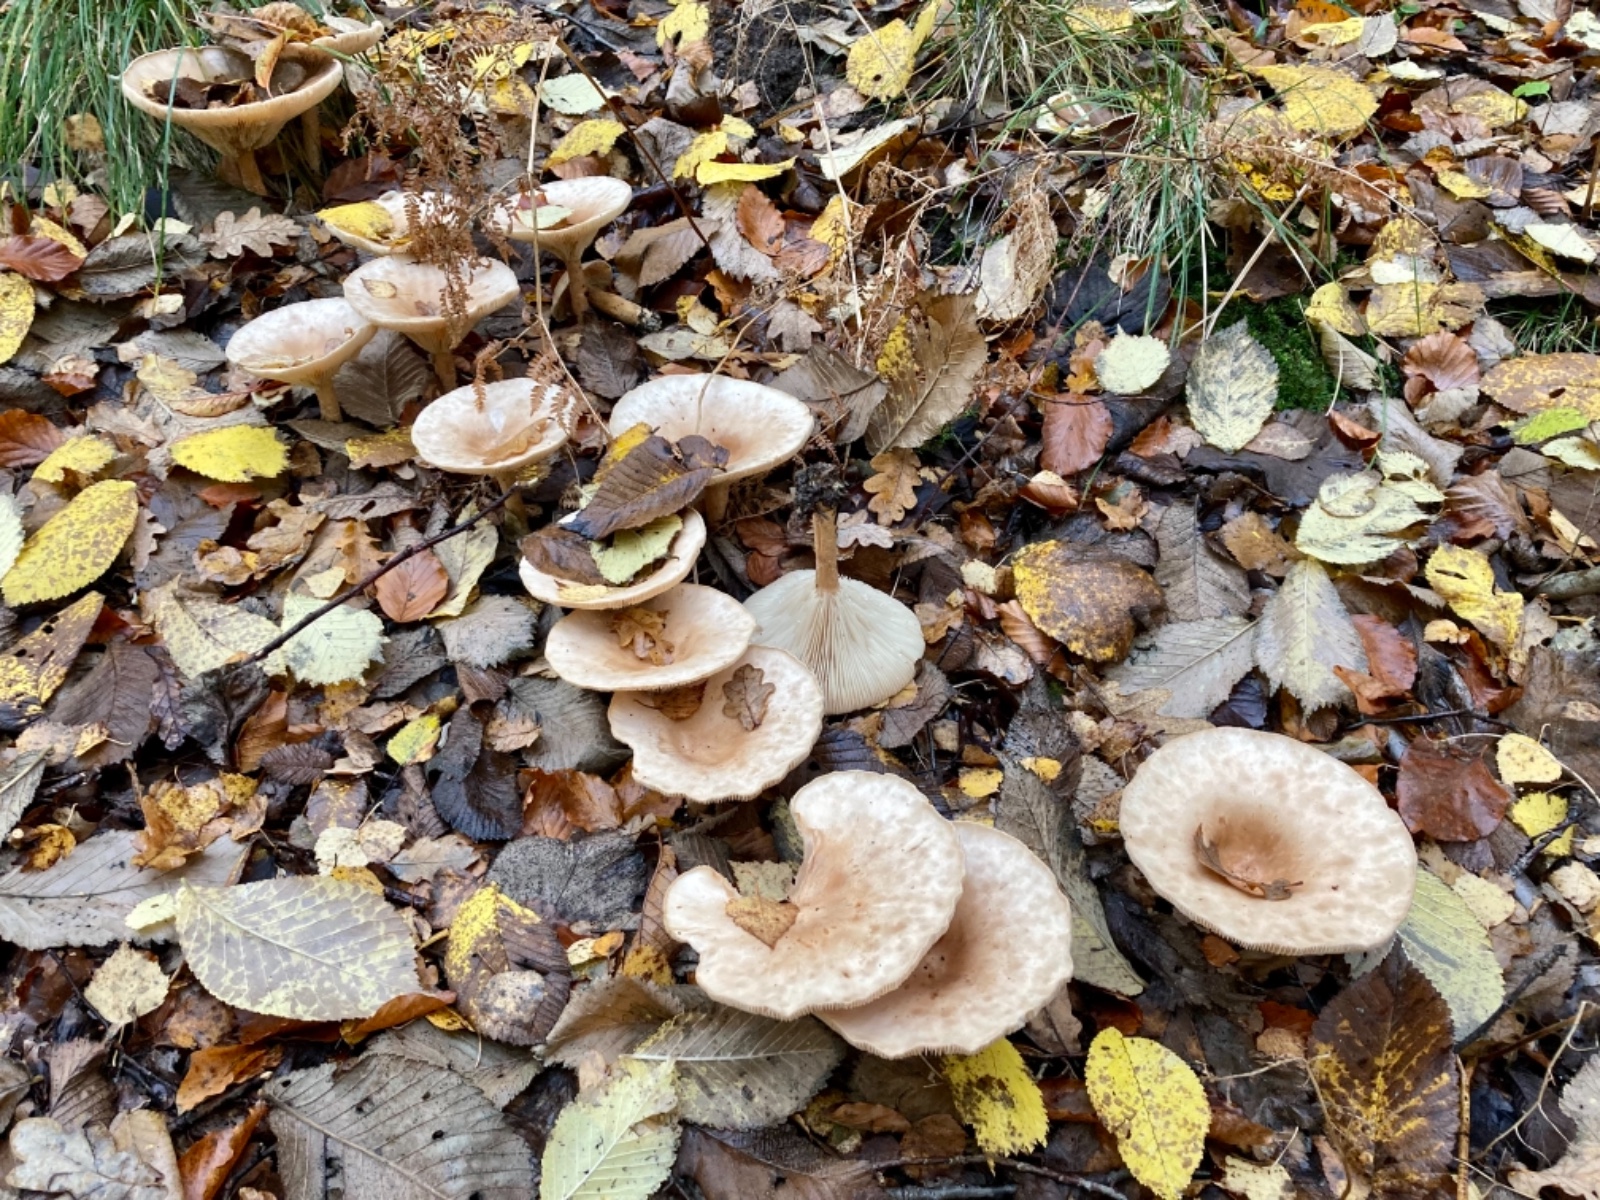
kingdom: Fungi
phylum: Basidiomycota
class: Agaricomycetes
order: Agaricales
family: Tricholomataceae
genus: Infundibulicybe
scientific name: Infundibulicybe geotropa
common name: stor tragthat
